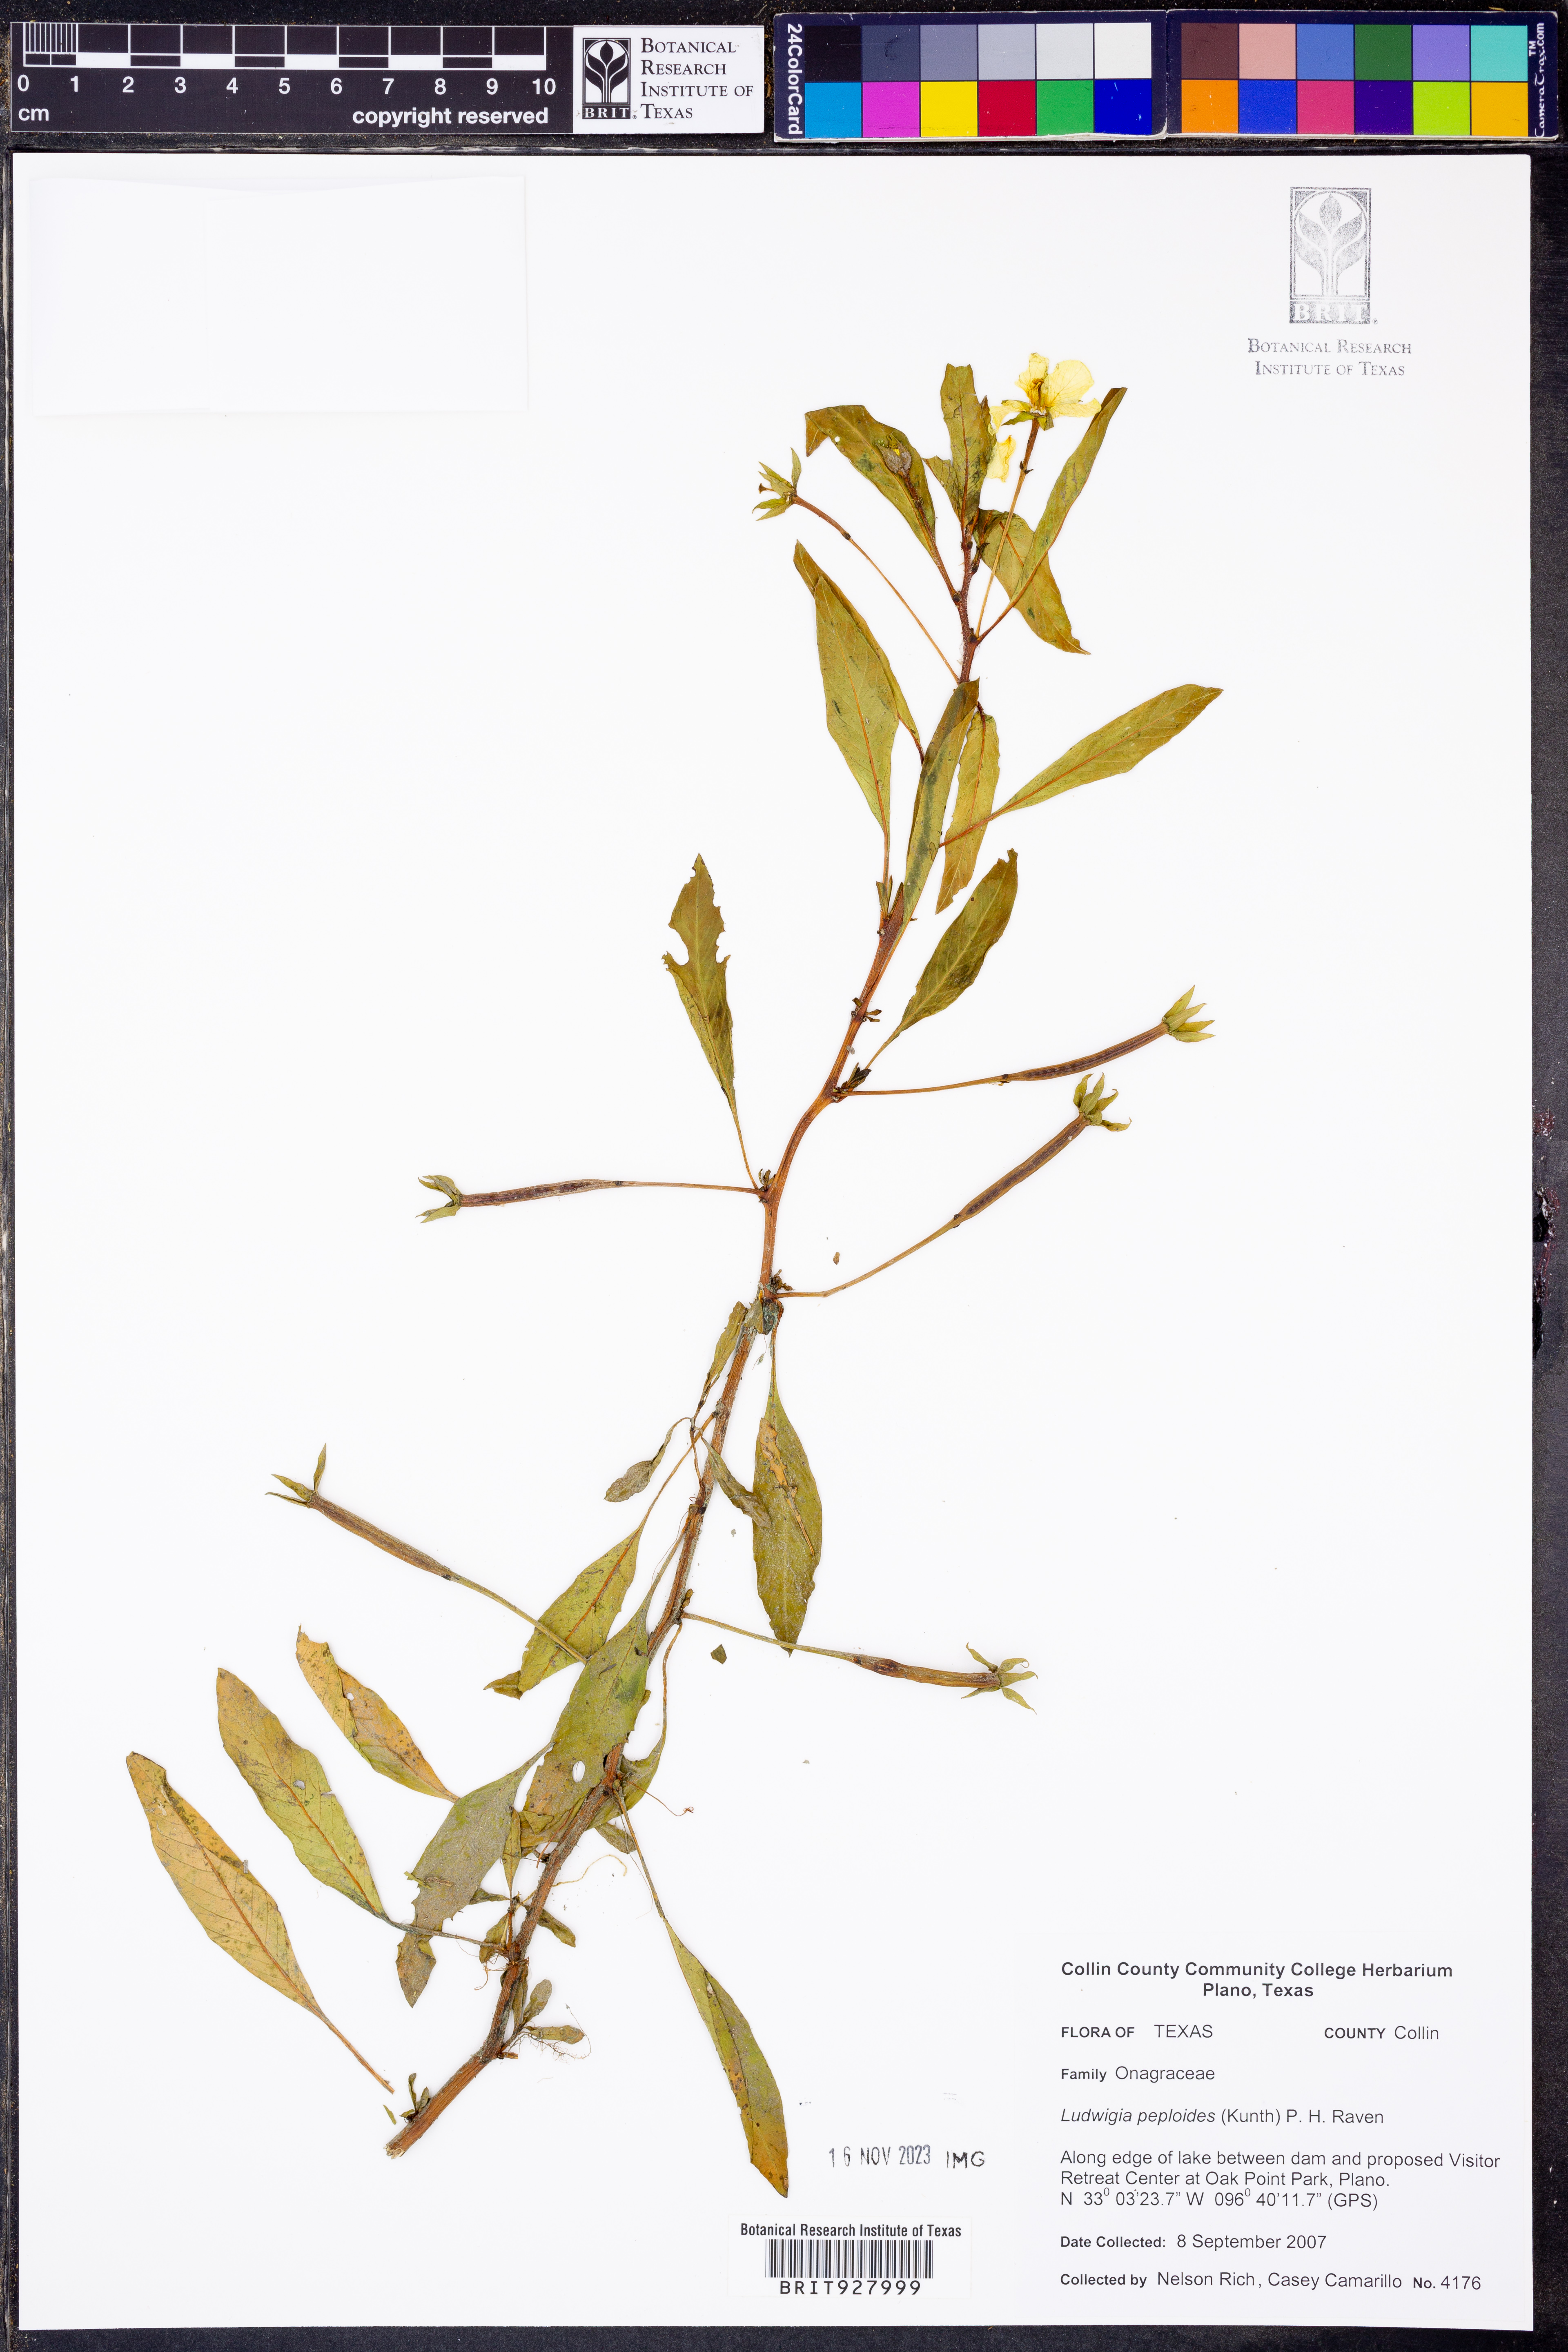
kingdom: Plantae
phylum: Tracheophyta
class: Magnoliopsida
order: Myrtales
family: Onagraceae
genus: Ludwigia
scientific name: Ludwigia peploides
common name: Floating primrose-willow
